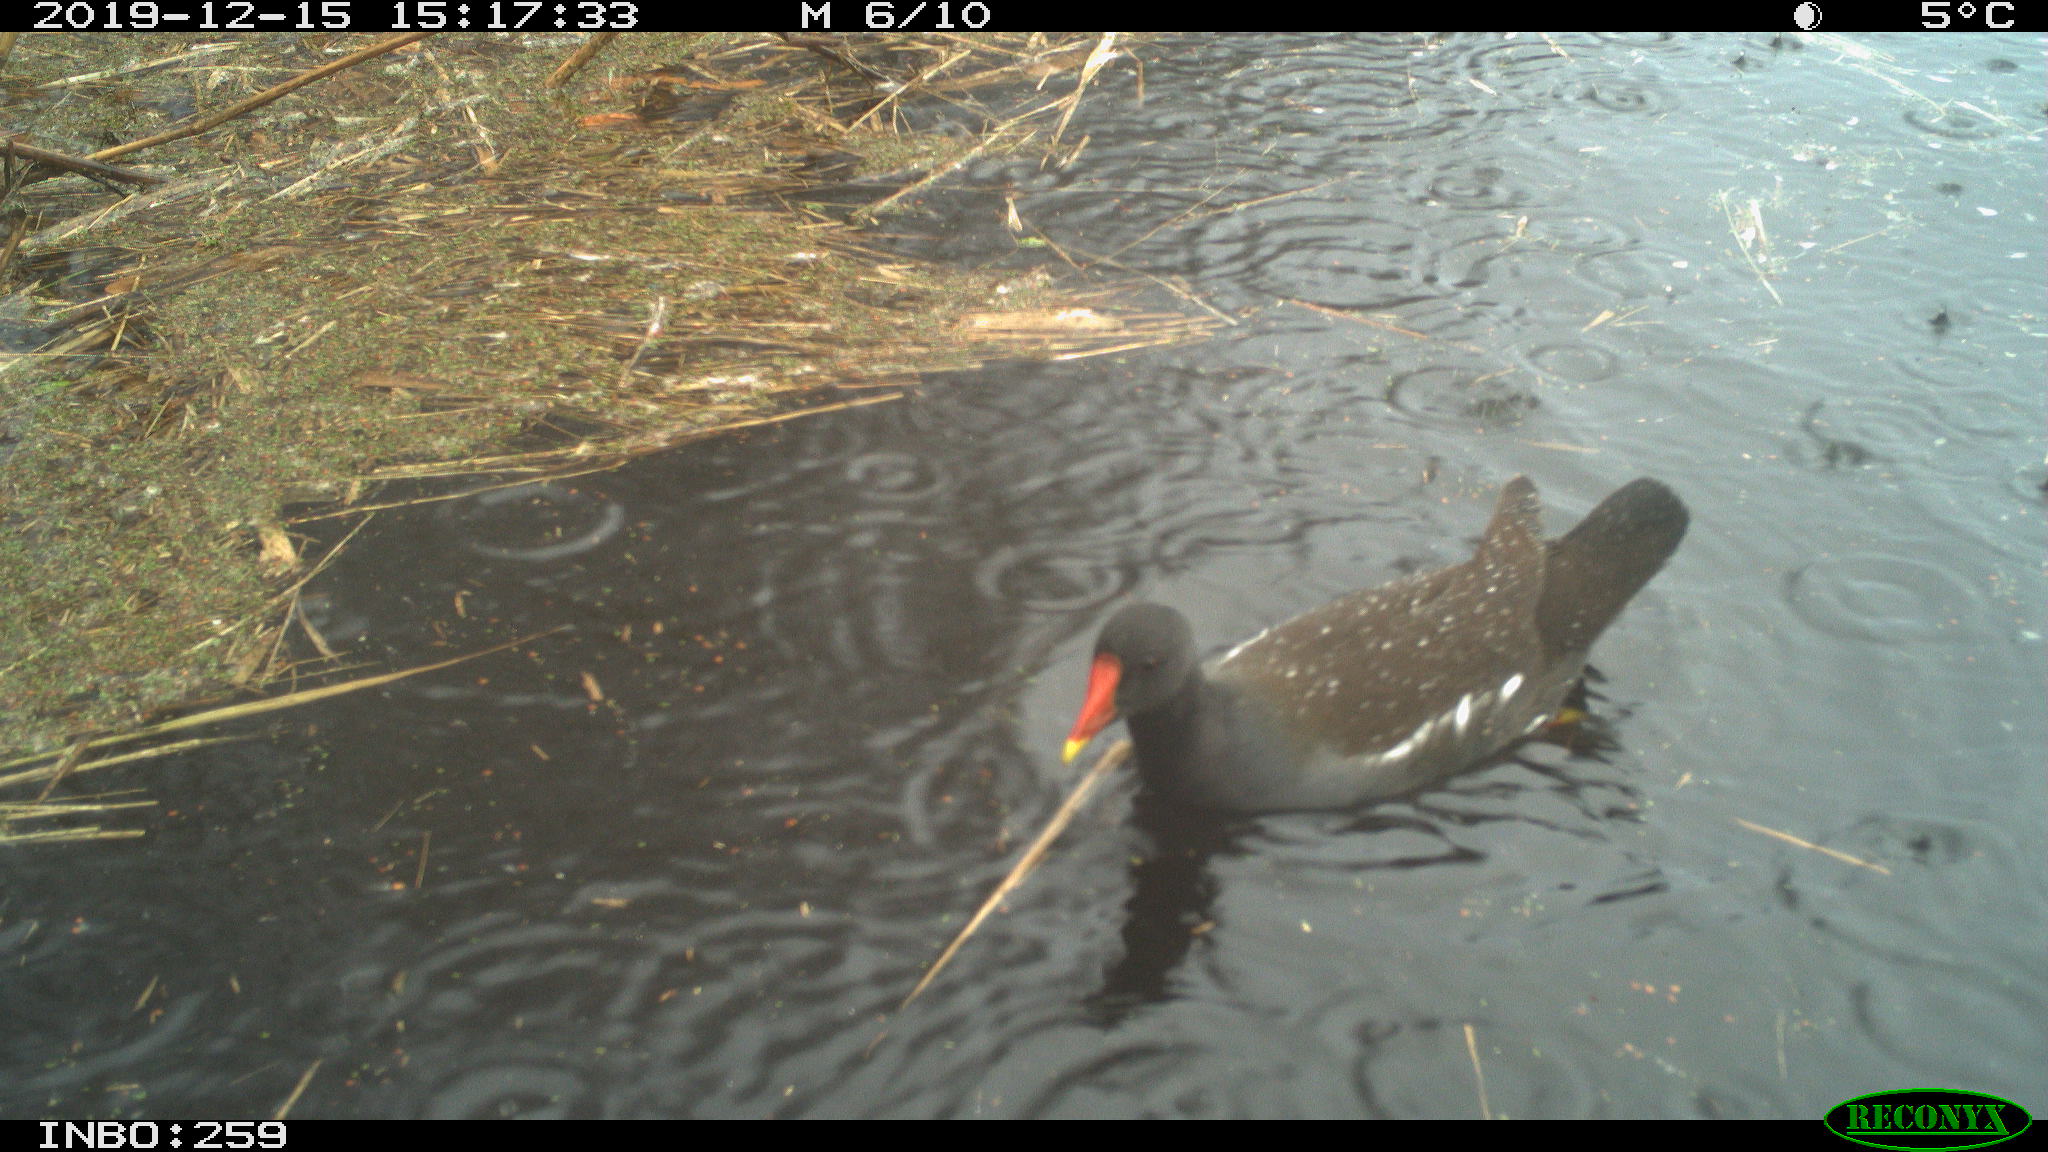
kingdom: Animalia
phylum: Chordata
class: Aves
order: Gruiformes
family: Rallidae
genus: Gallinula
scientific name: Gallinula chloropus
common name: Common moorhen
